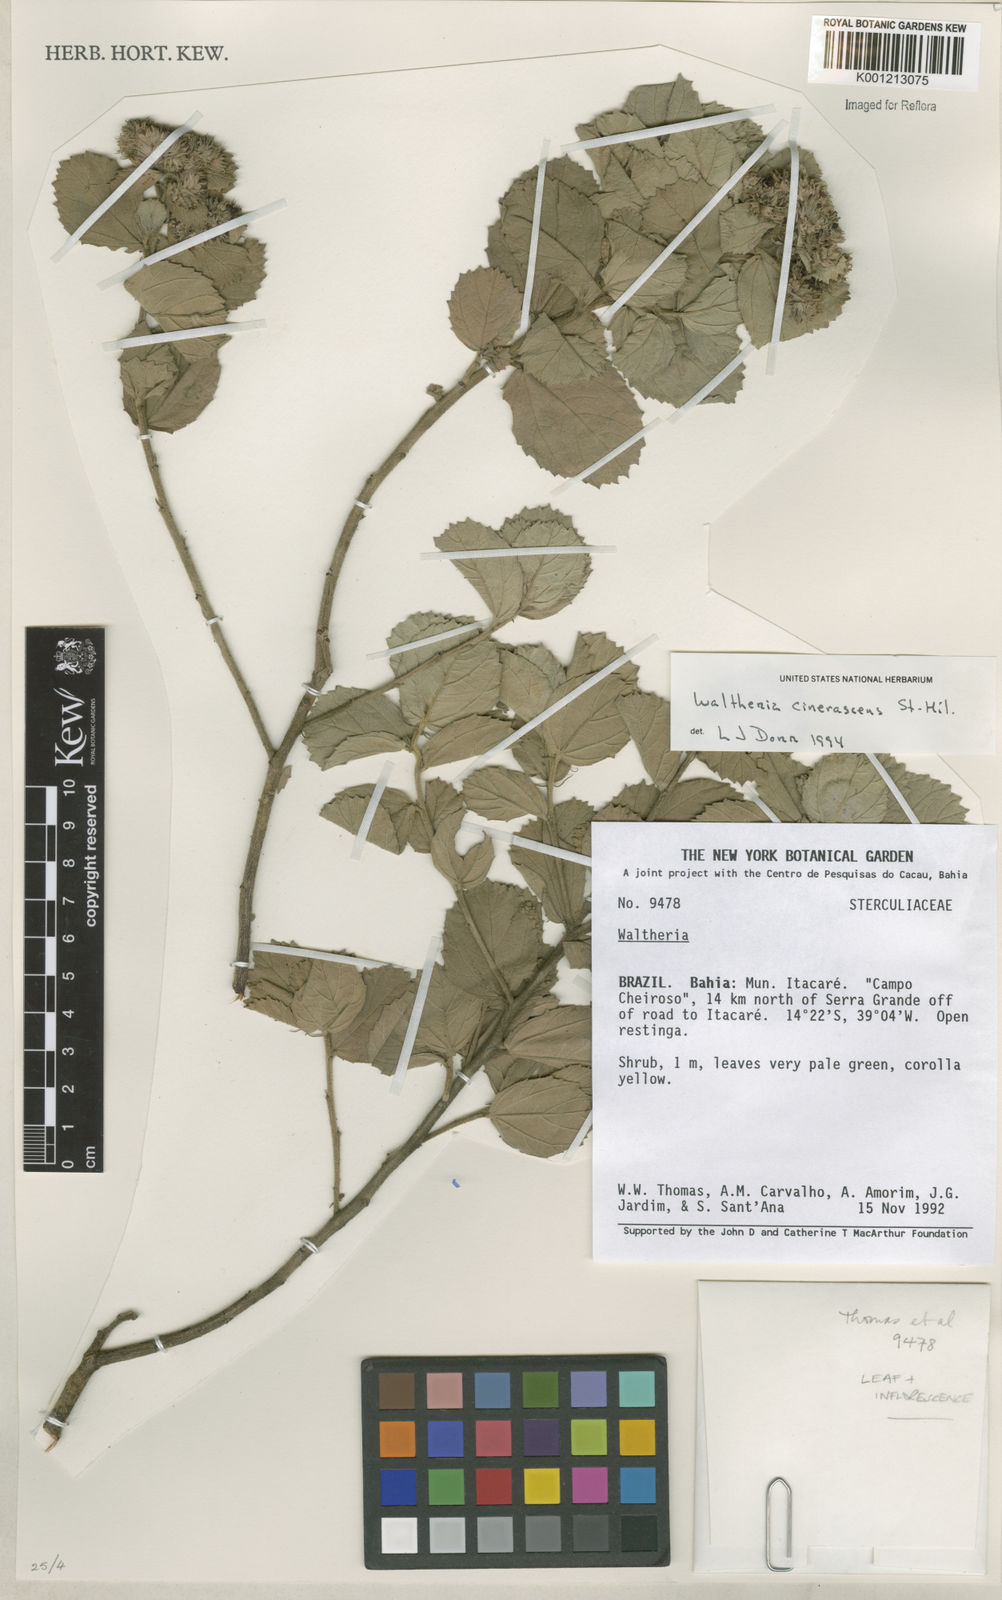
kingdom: Plantae
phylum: Tracheophyta
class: Magnoliopsida
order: Malvales
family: Malvaceae
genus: Waltheria
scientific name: Waltheria cinerescens
